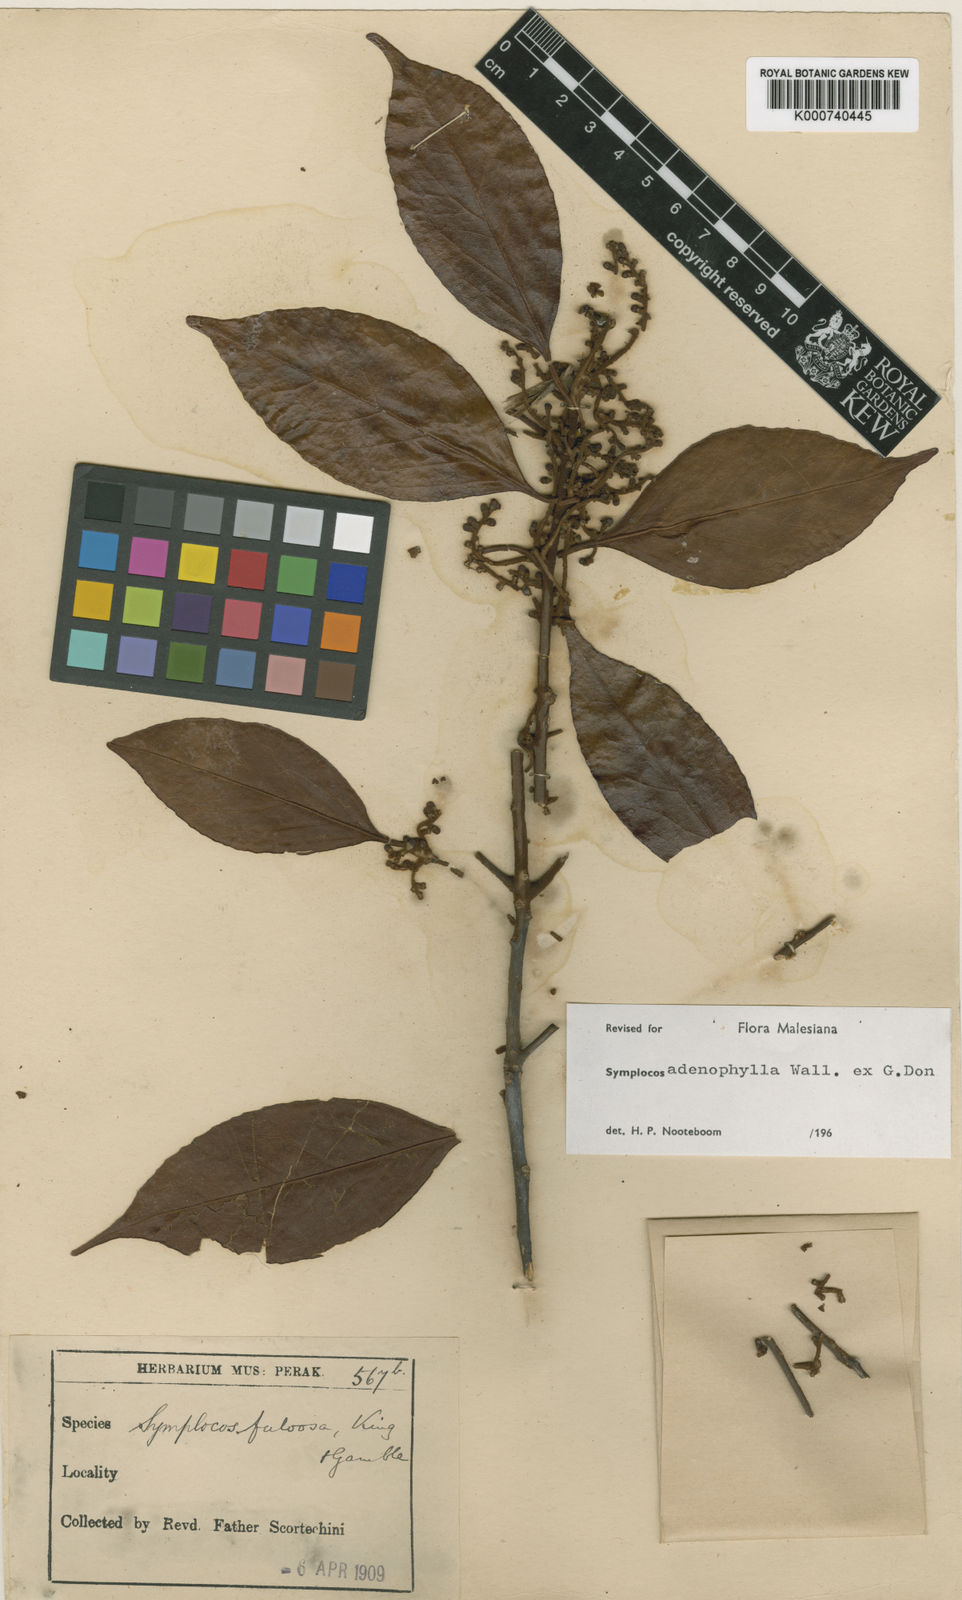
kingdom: Plantae
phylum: Tracheophyta
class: Magnoliopsida
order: Ericales
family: Symplocaceae
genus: Symplocos
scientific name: Symplocos
